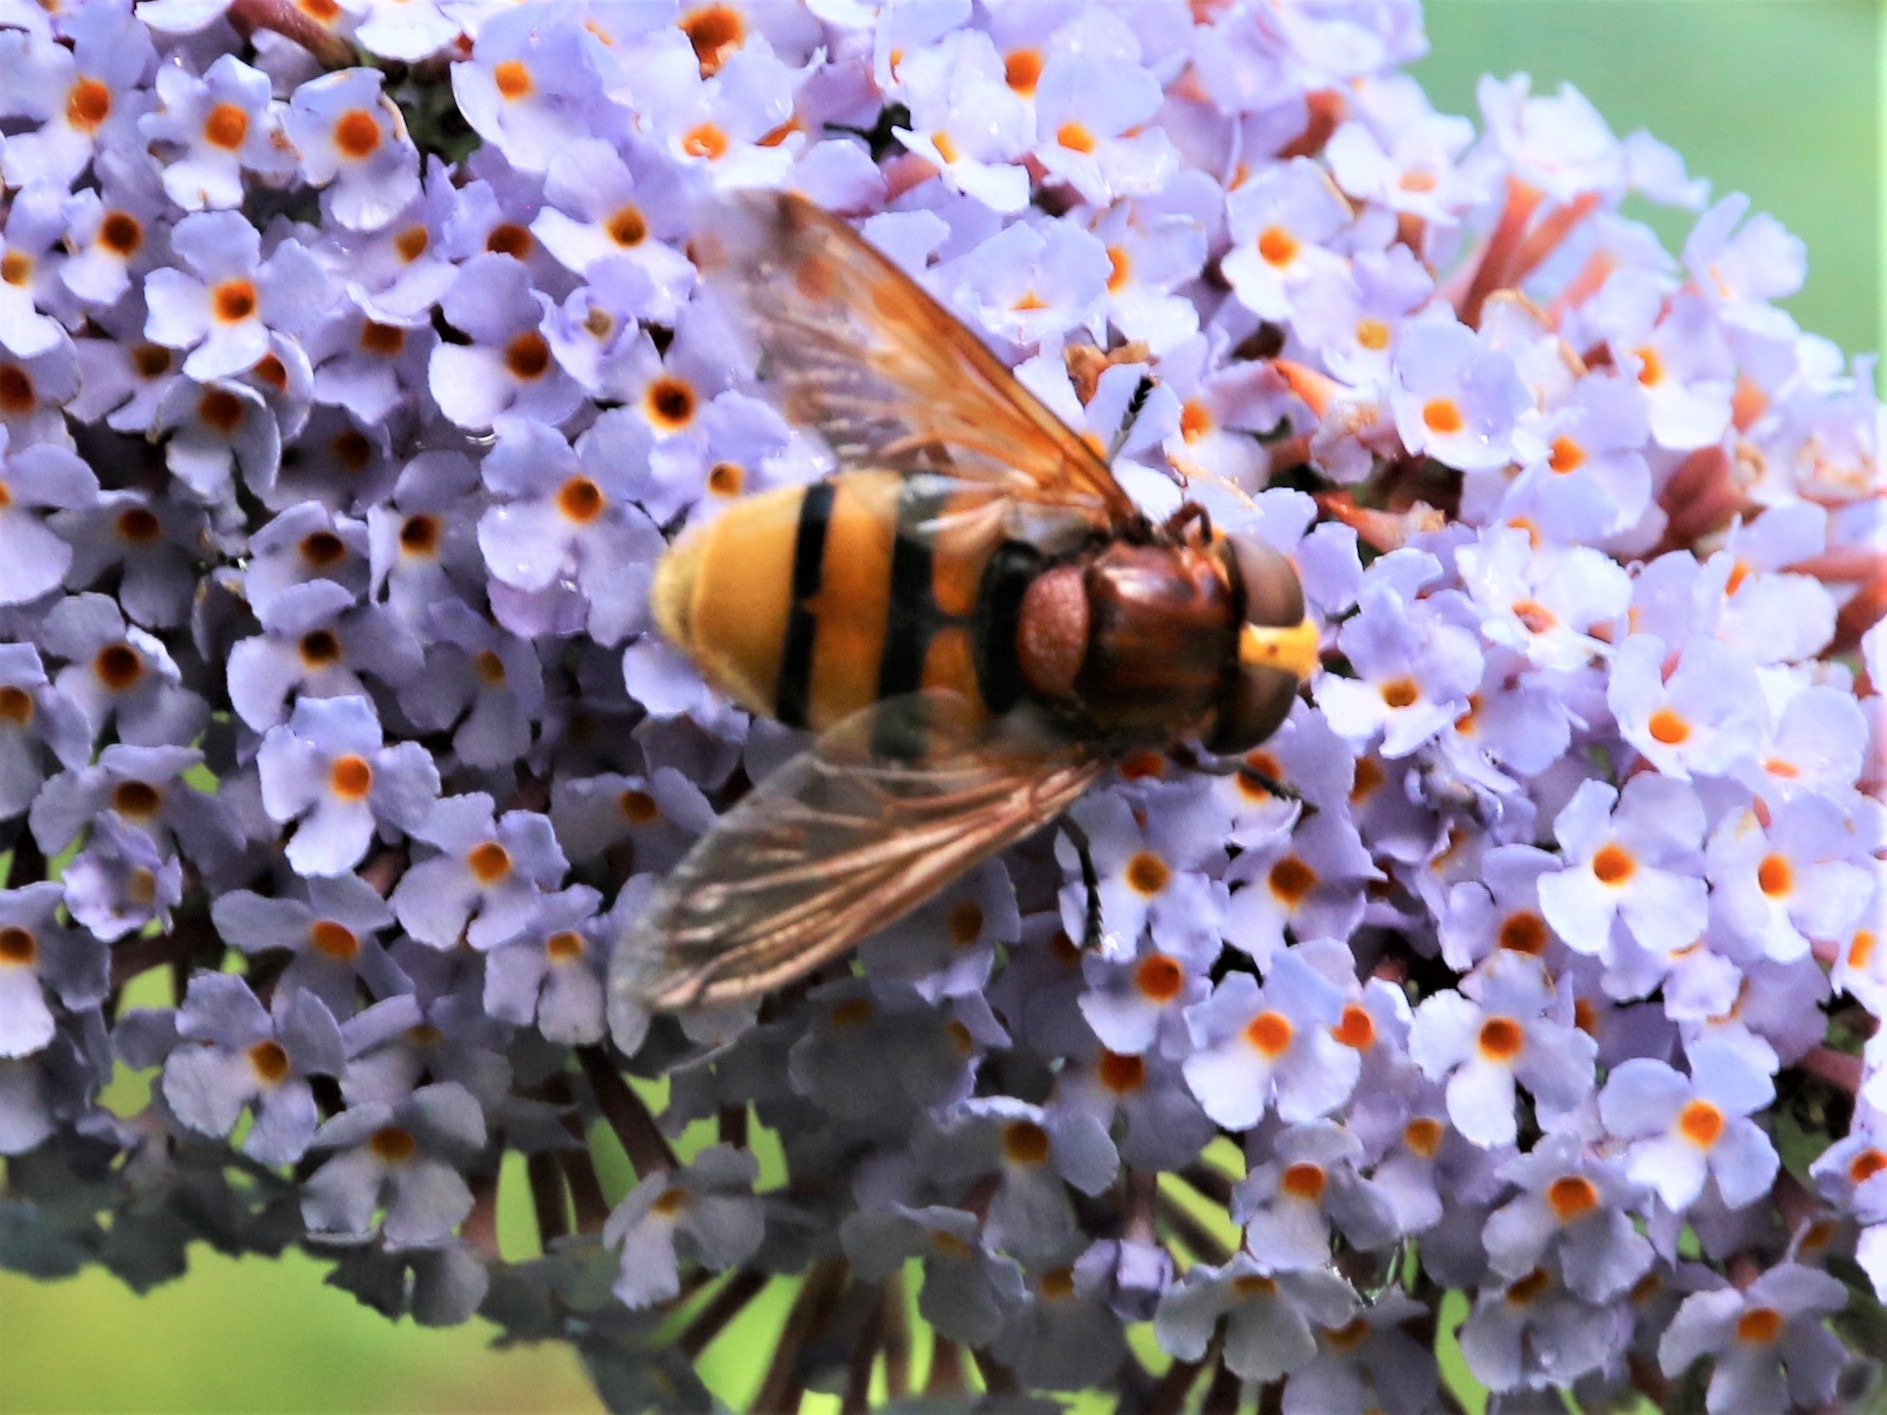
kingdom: Animalia
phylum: Arthropoda
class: Insecta
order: Diptera
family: Syrphidae
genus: Volucella
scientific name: Volucella zonaria
